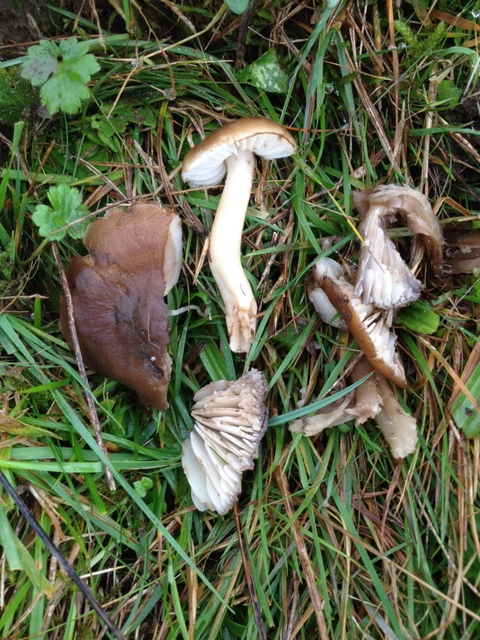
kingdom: Fungi
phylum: Basidiomycota
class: Agaricomycetes
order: Agaricales
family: Hygrophoraceae
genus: Hygrocybe
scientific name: Hygrocybe ingrata
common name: Jensens vokshat
